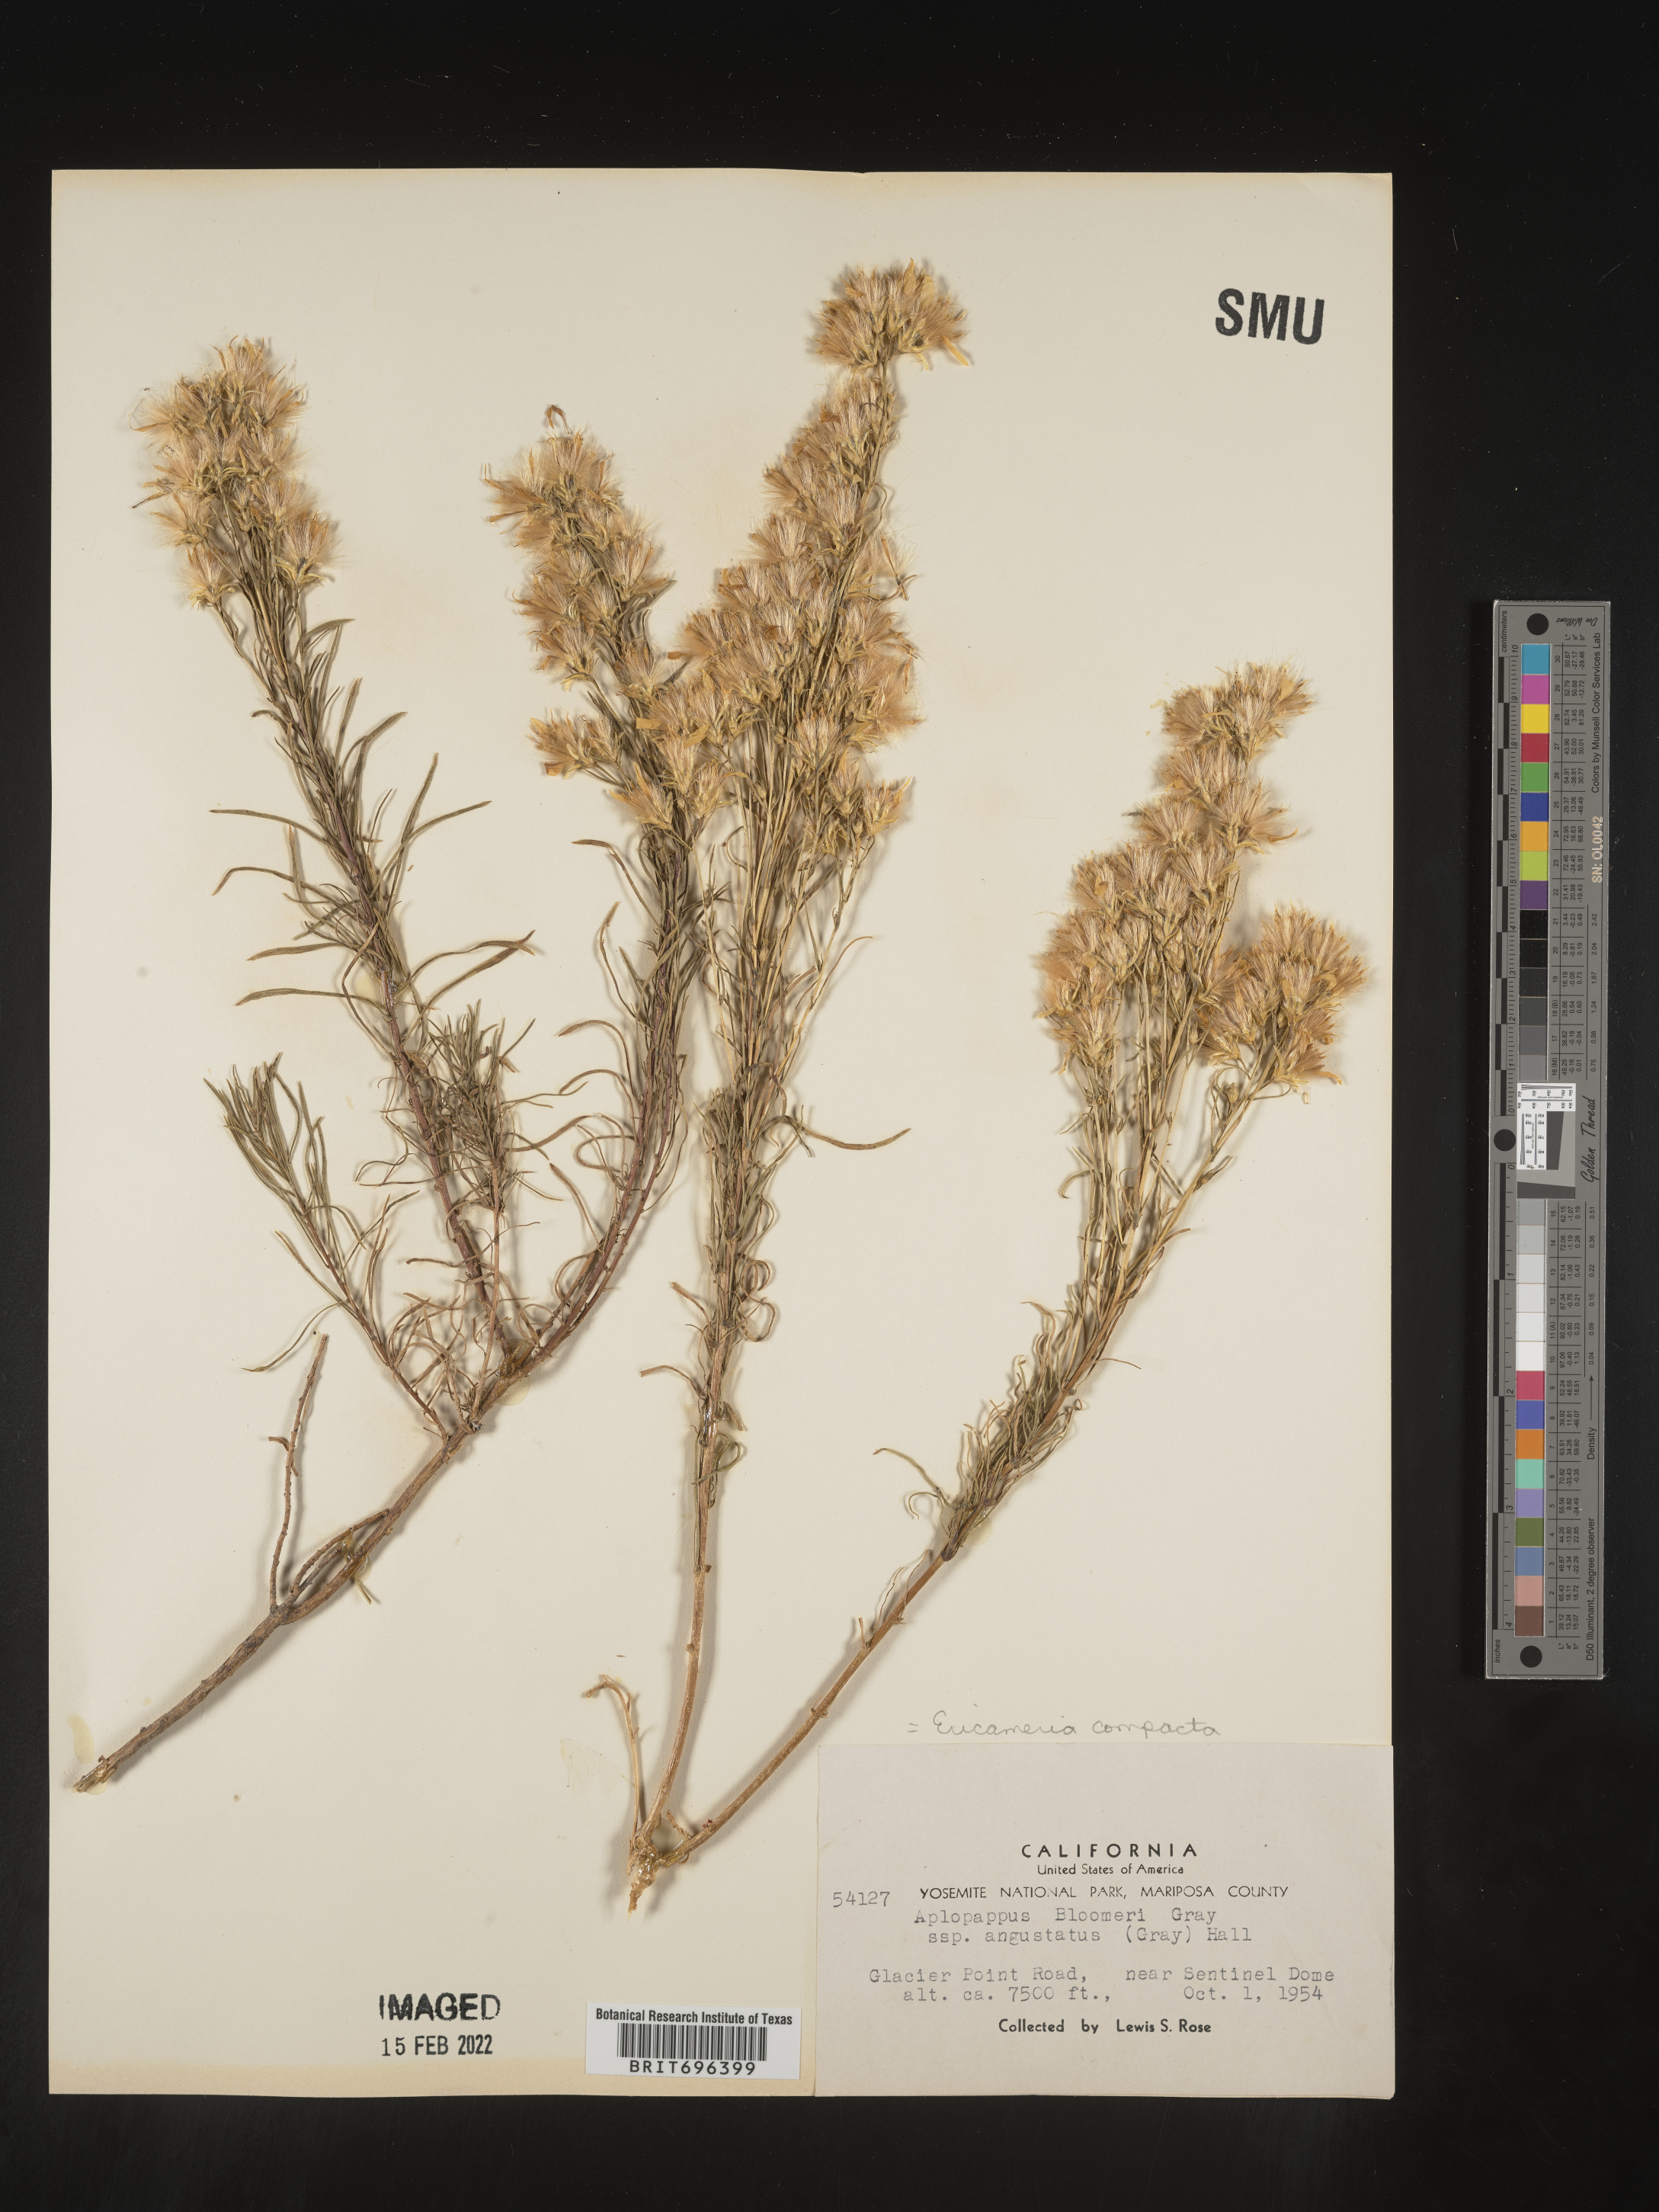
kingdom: Plantae
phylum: Tracheophyta
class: Magnoliopsida
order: Asterales
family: Asteraceae
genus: Ericameria
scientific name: Ericameria bloomeri
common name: Bloomer's goldenbush
